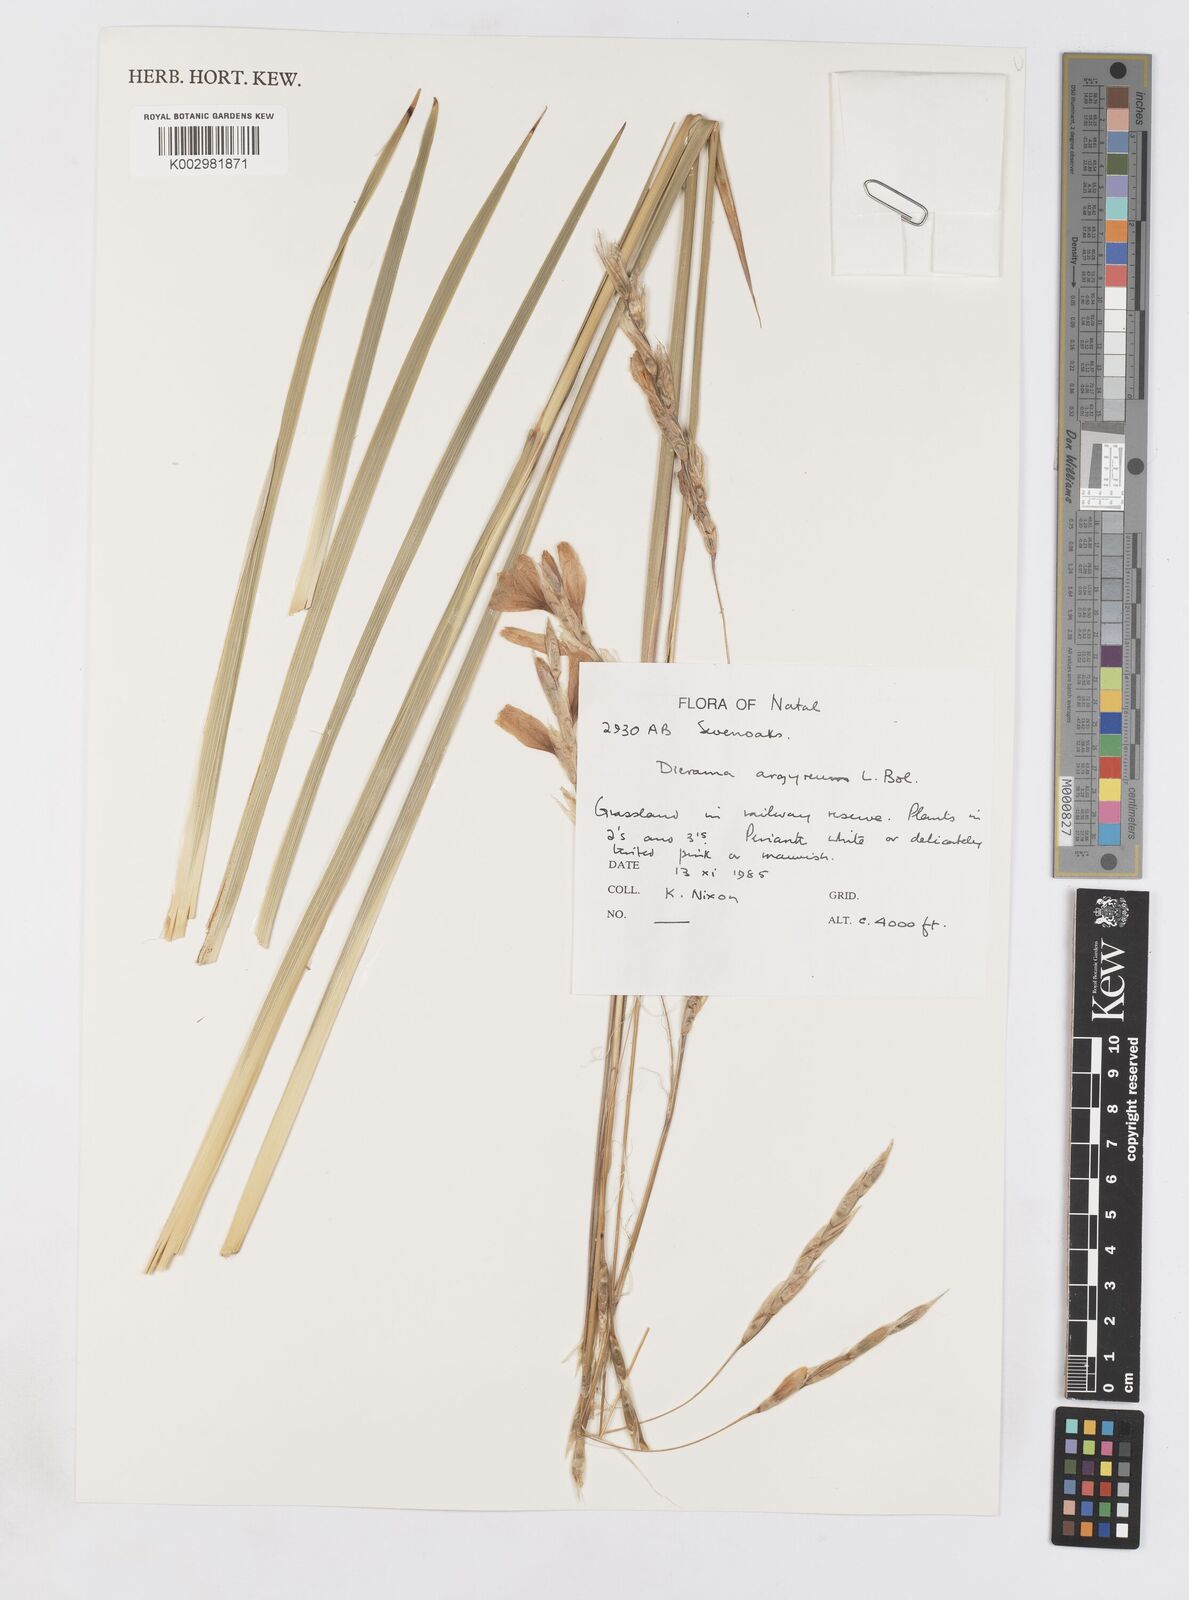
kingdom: Plantae
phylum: Tracheophyta
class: Liliopsida
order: Asparagales
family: Iridaceae
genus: Dierama
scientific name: Dierama argyreum
